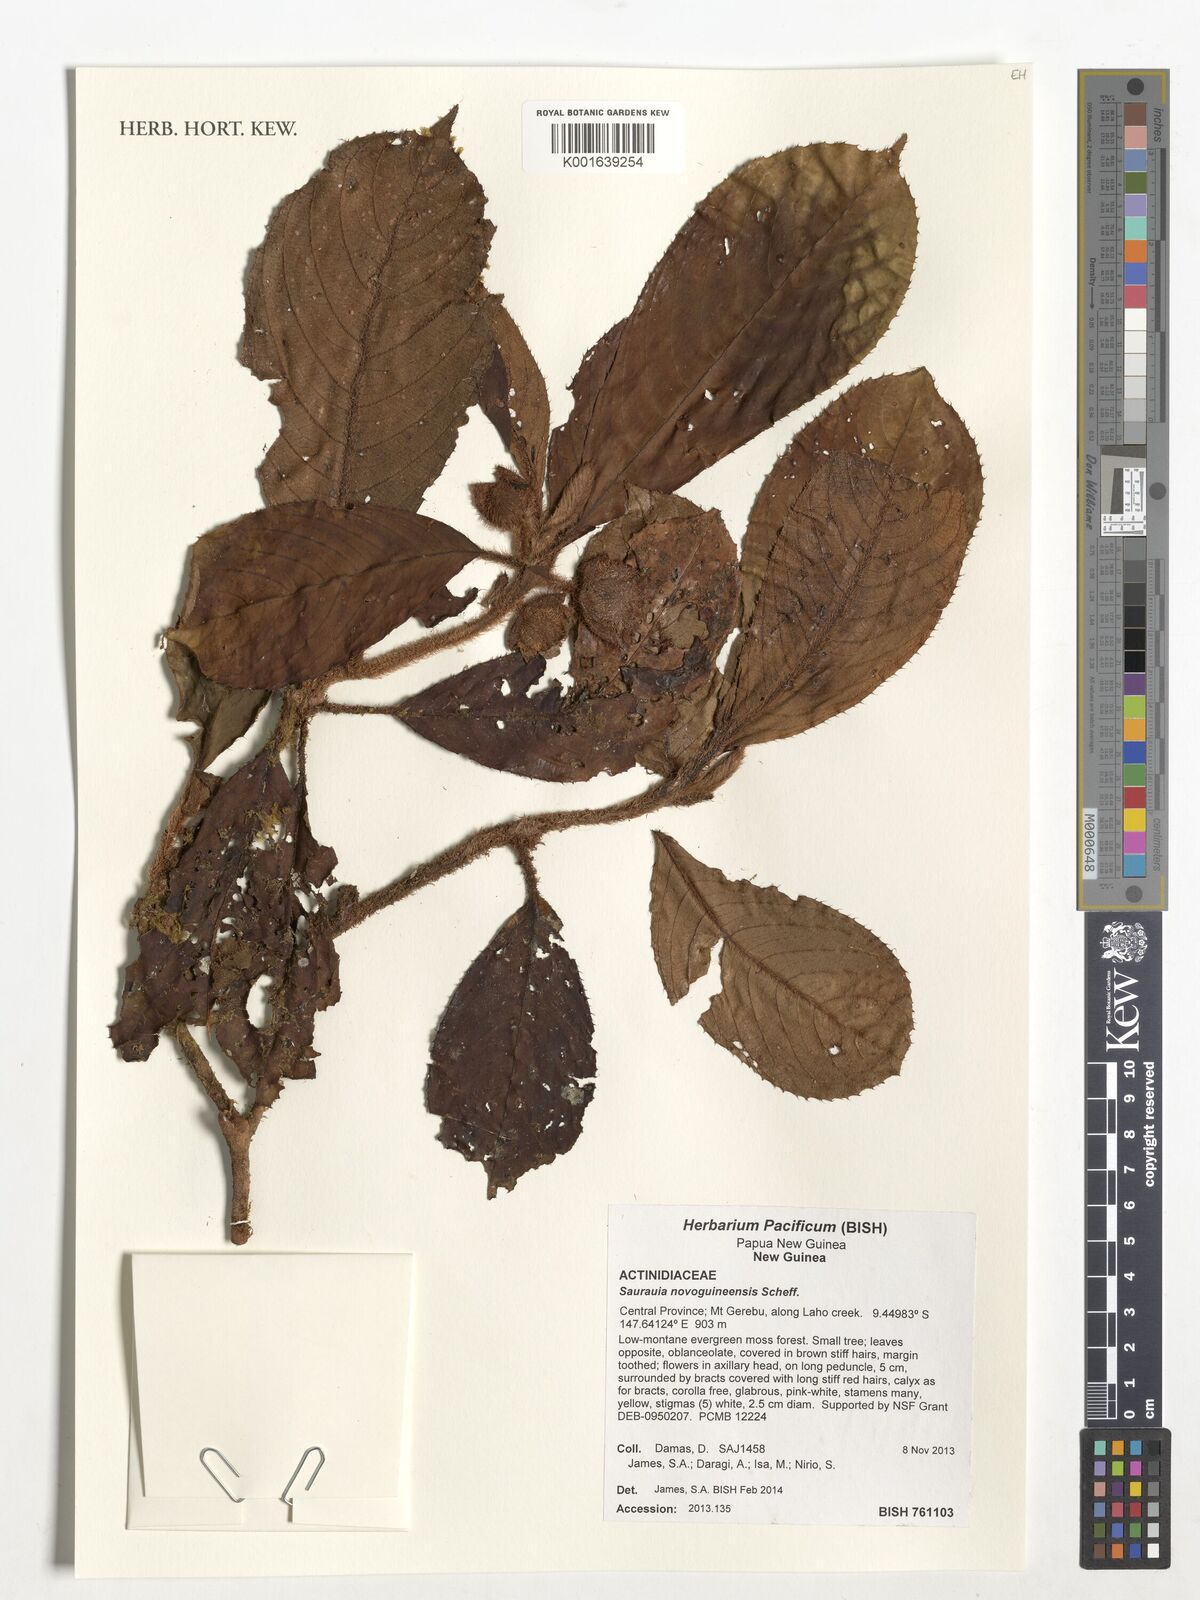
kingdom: Plantae
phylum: Tracheophyta
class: Magnoliopsida
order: Ericales
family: Actinidiaceae
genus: Saurauia
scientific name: Saurauia novoguineensis
